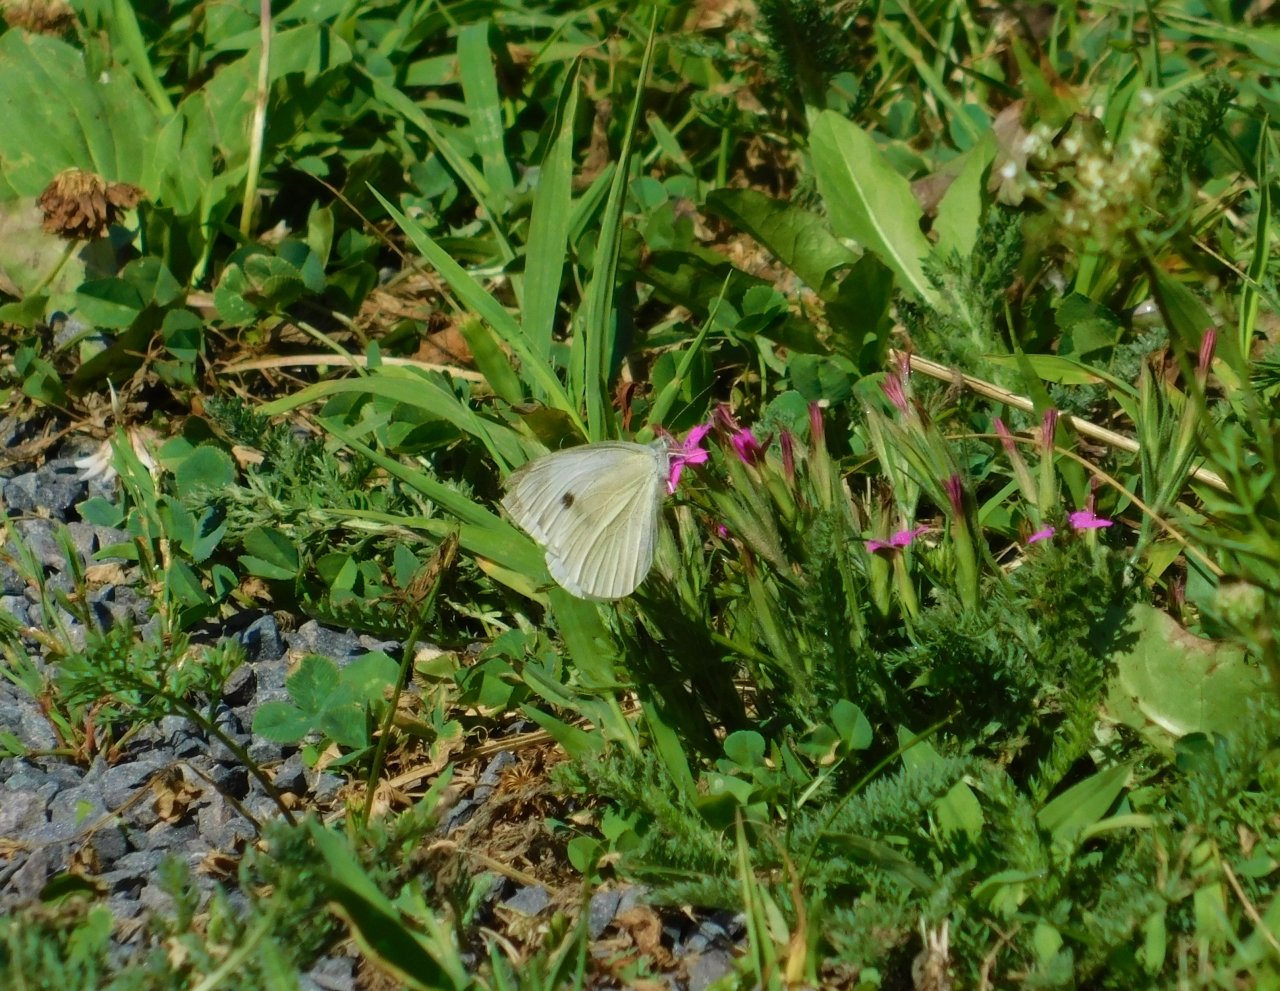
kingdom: Animalia
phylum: Arthropoda
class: Insecta
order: Lepidoptera
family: Pieridae
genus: Pieris
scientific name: Pieris rapae
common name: Cabbage White
